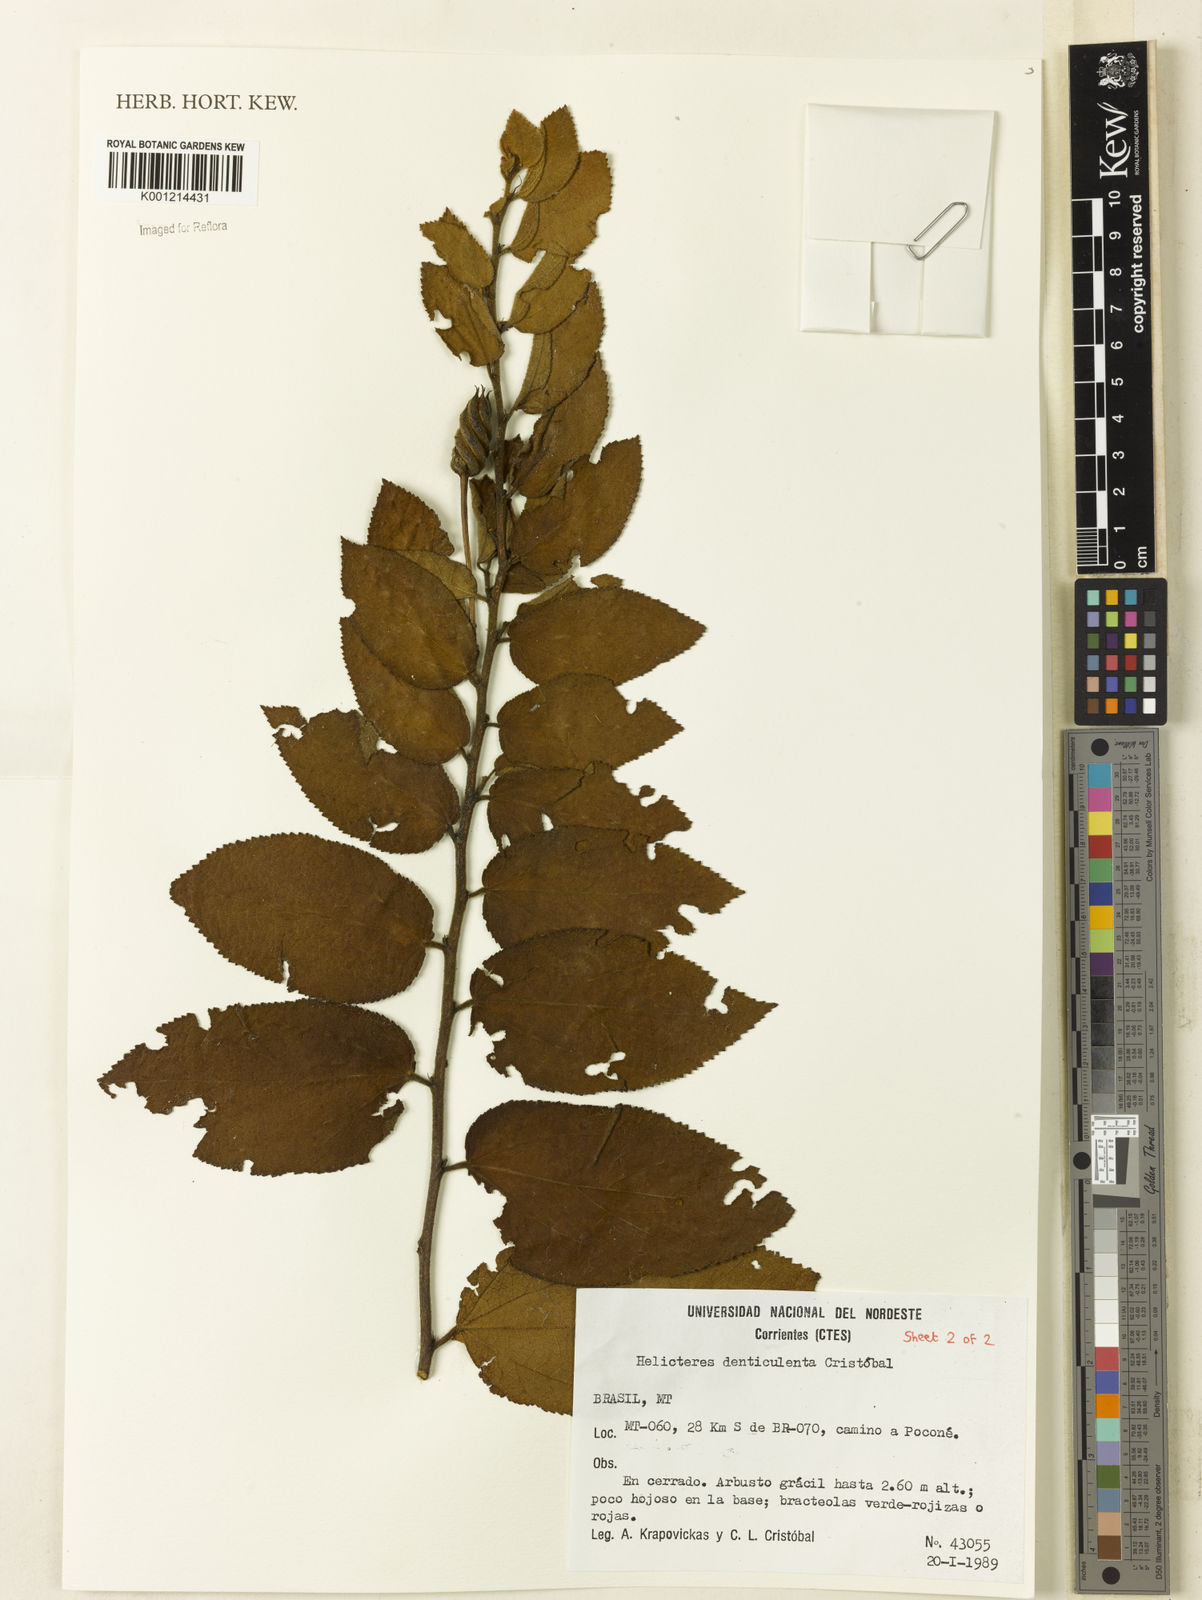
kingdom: Plantae
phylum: Tracheophyta
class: Magnoliopsida
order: Malvales
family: Malvaceae
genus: Helicteres
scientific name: Helicteres
